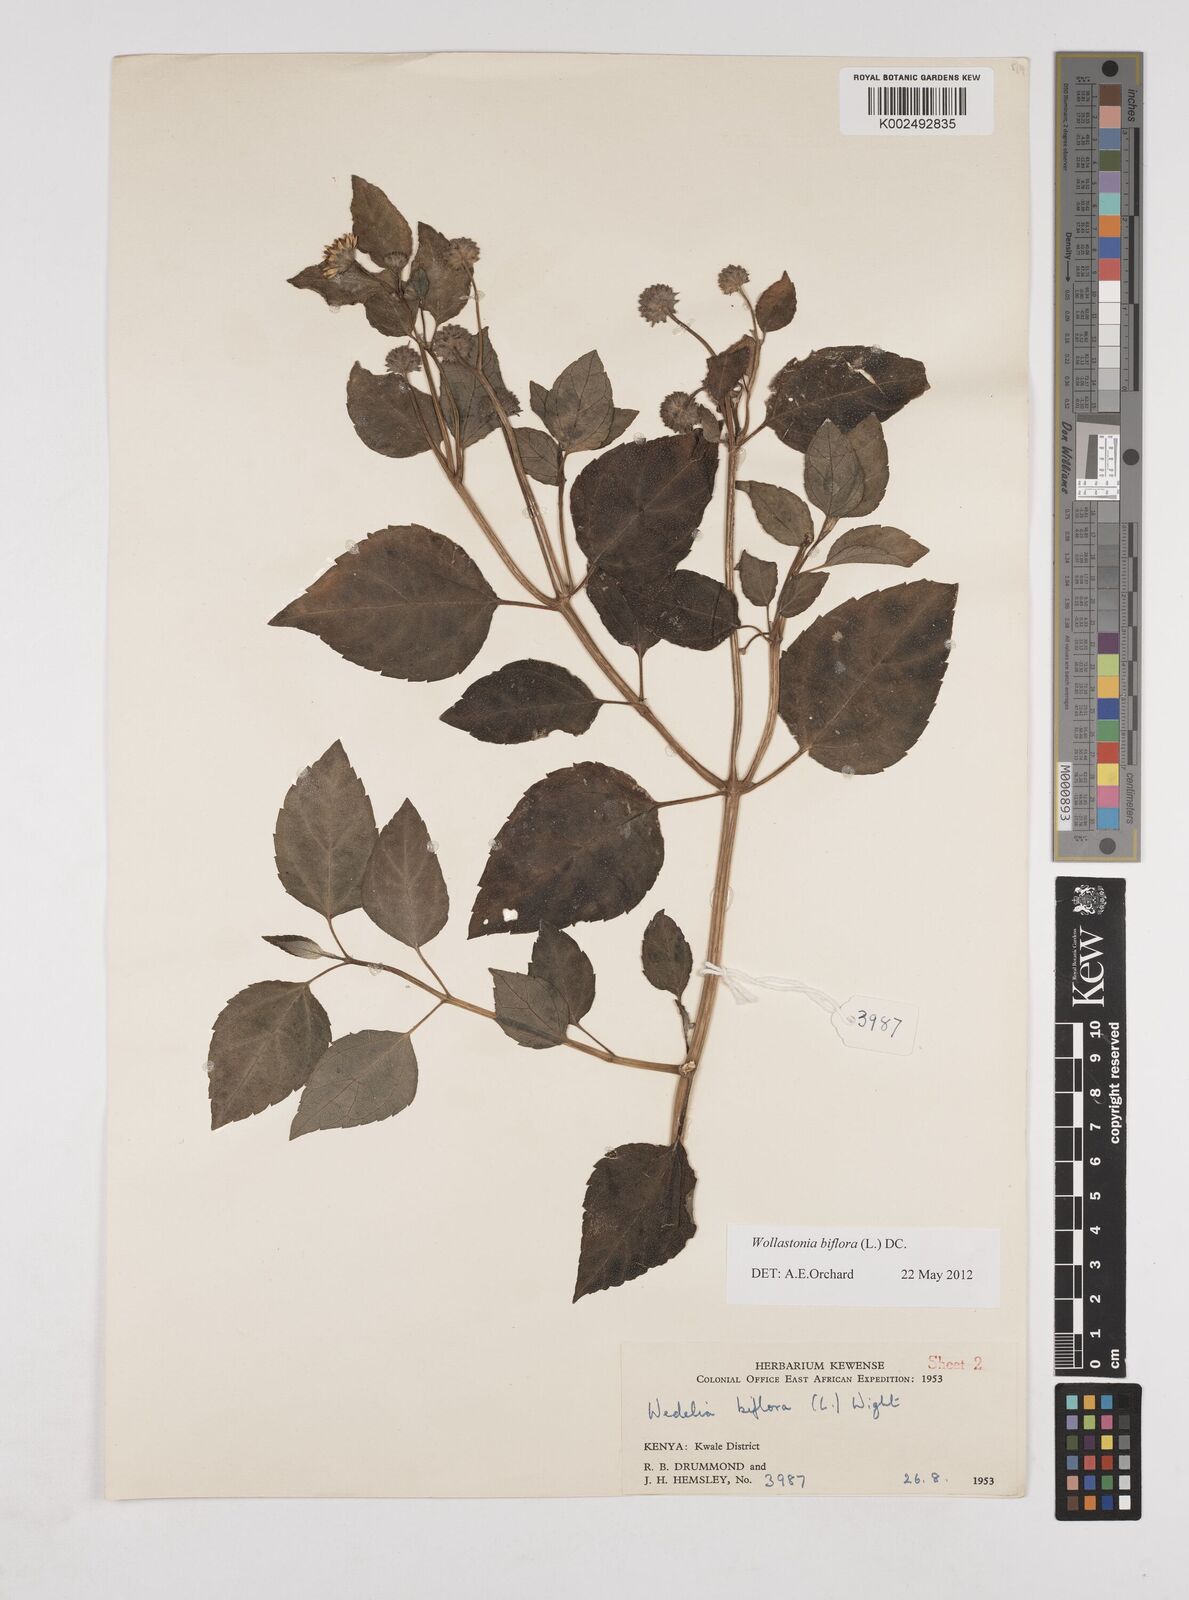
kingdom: Plantae
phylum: Tracheophyta
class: Magnoliopsida
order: Asterales
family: Asteraceae
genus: Wollastonia
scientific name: Wollastonia biflora
